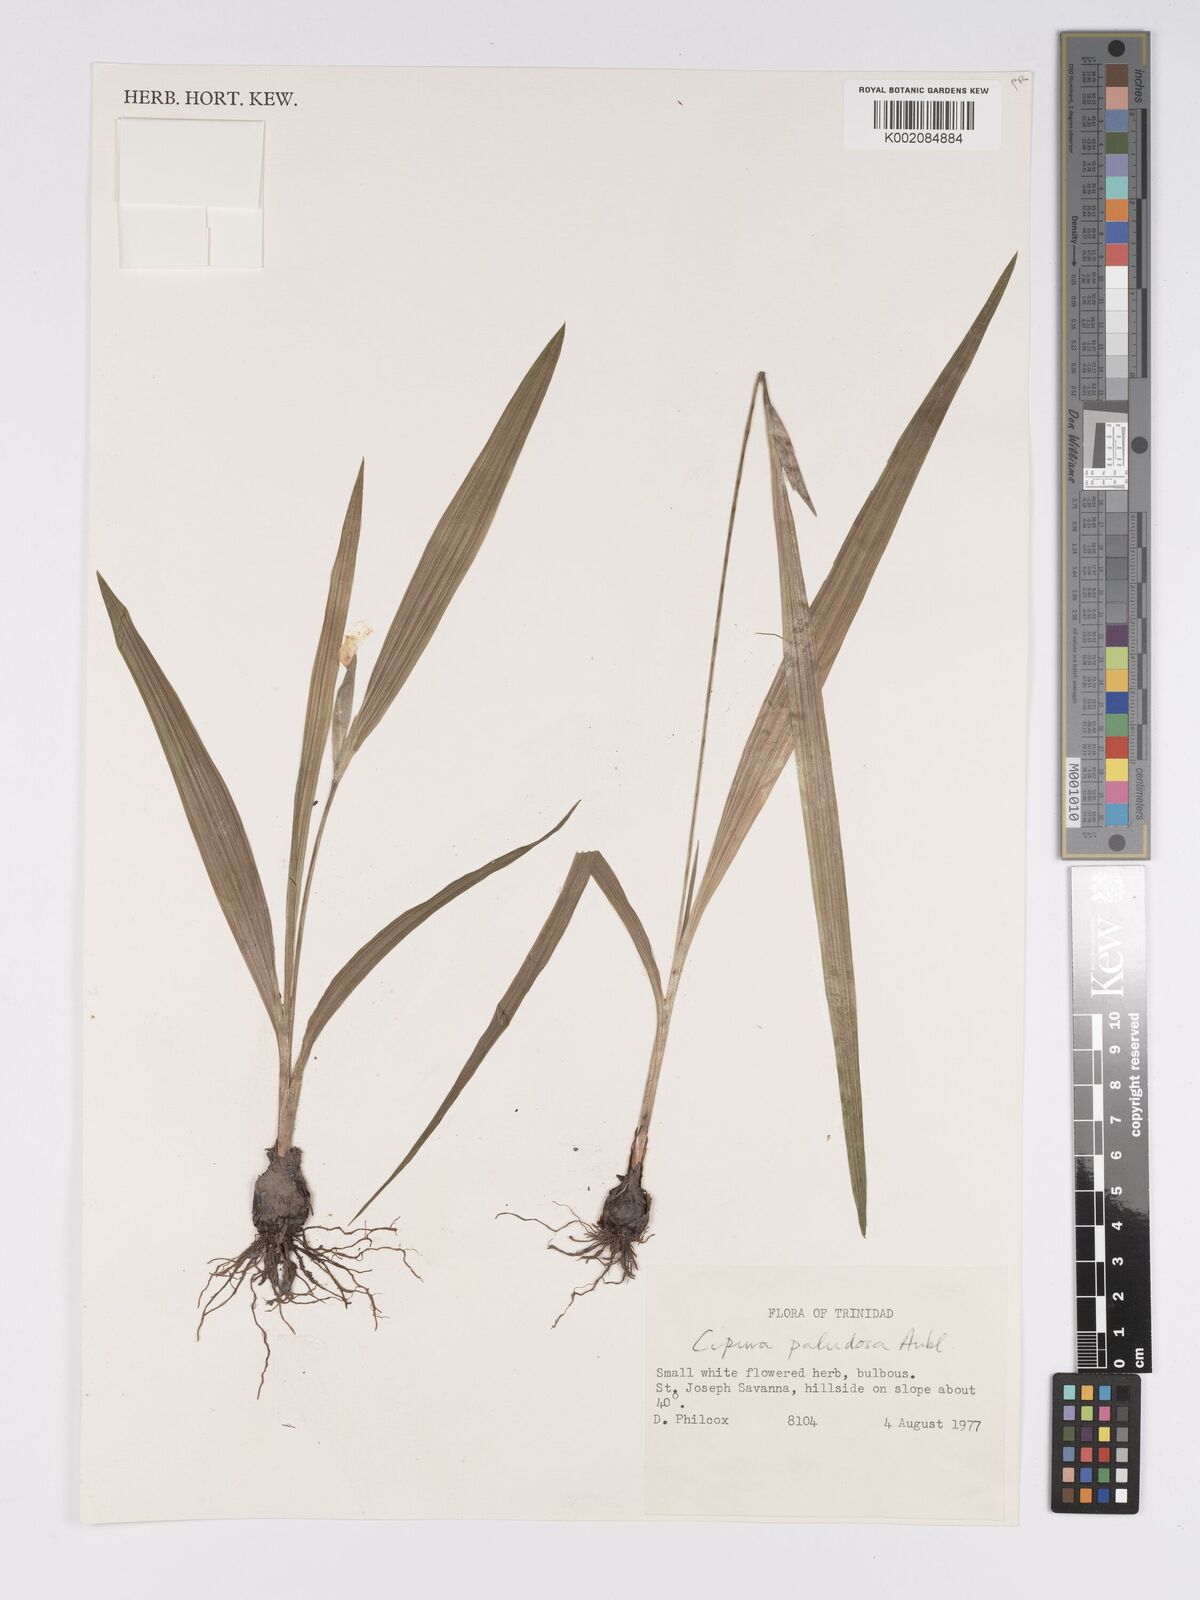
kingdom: Plantae
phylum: Tracheophyta
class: Liliopsida
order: Asparagales
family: Iridaceae
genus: Cipura
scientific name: Cipura paludosa
